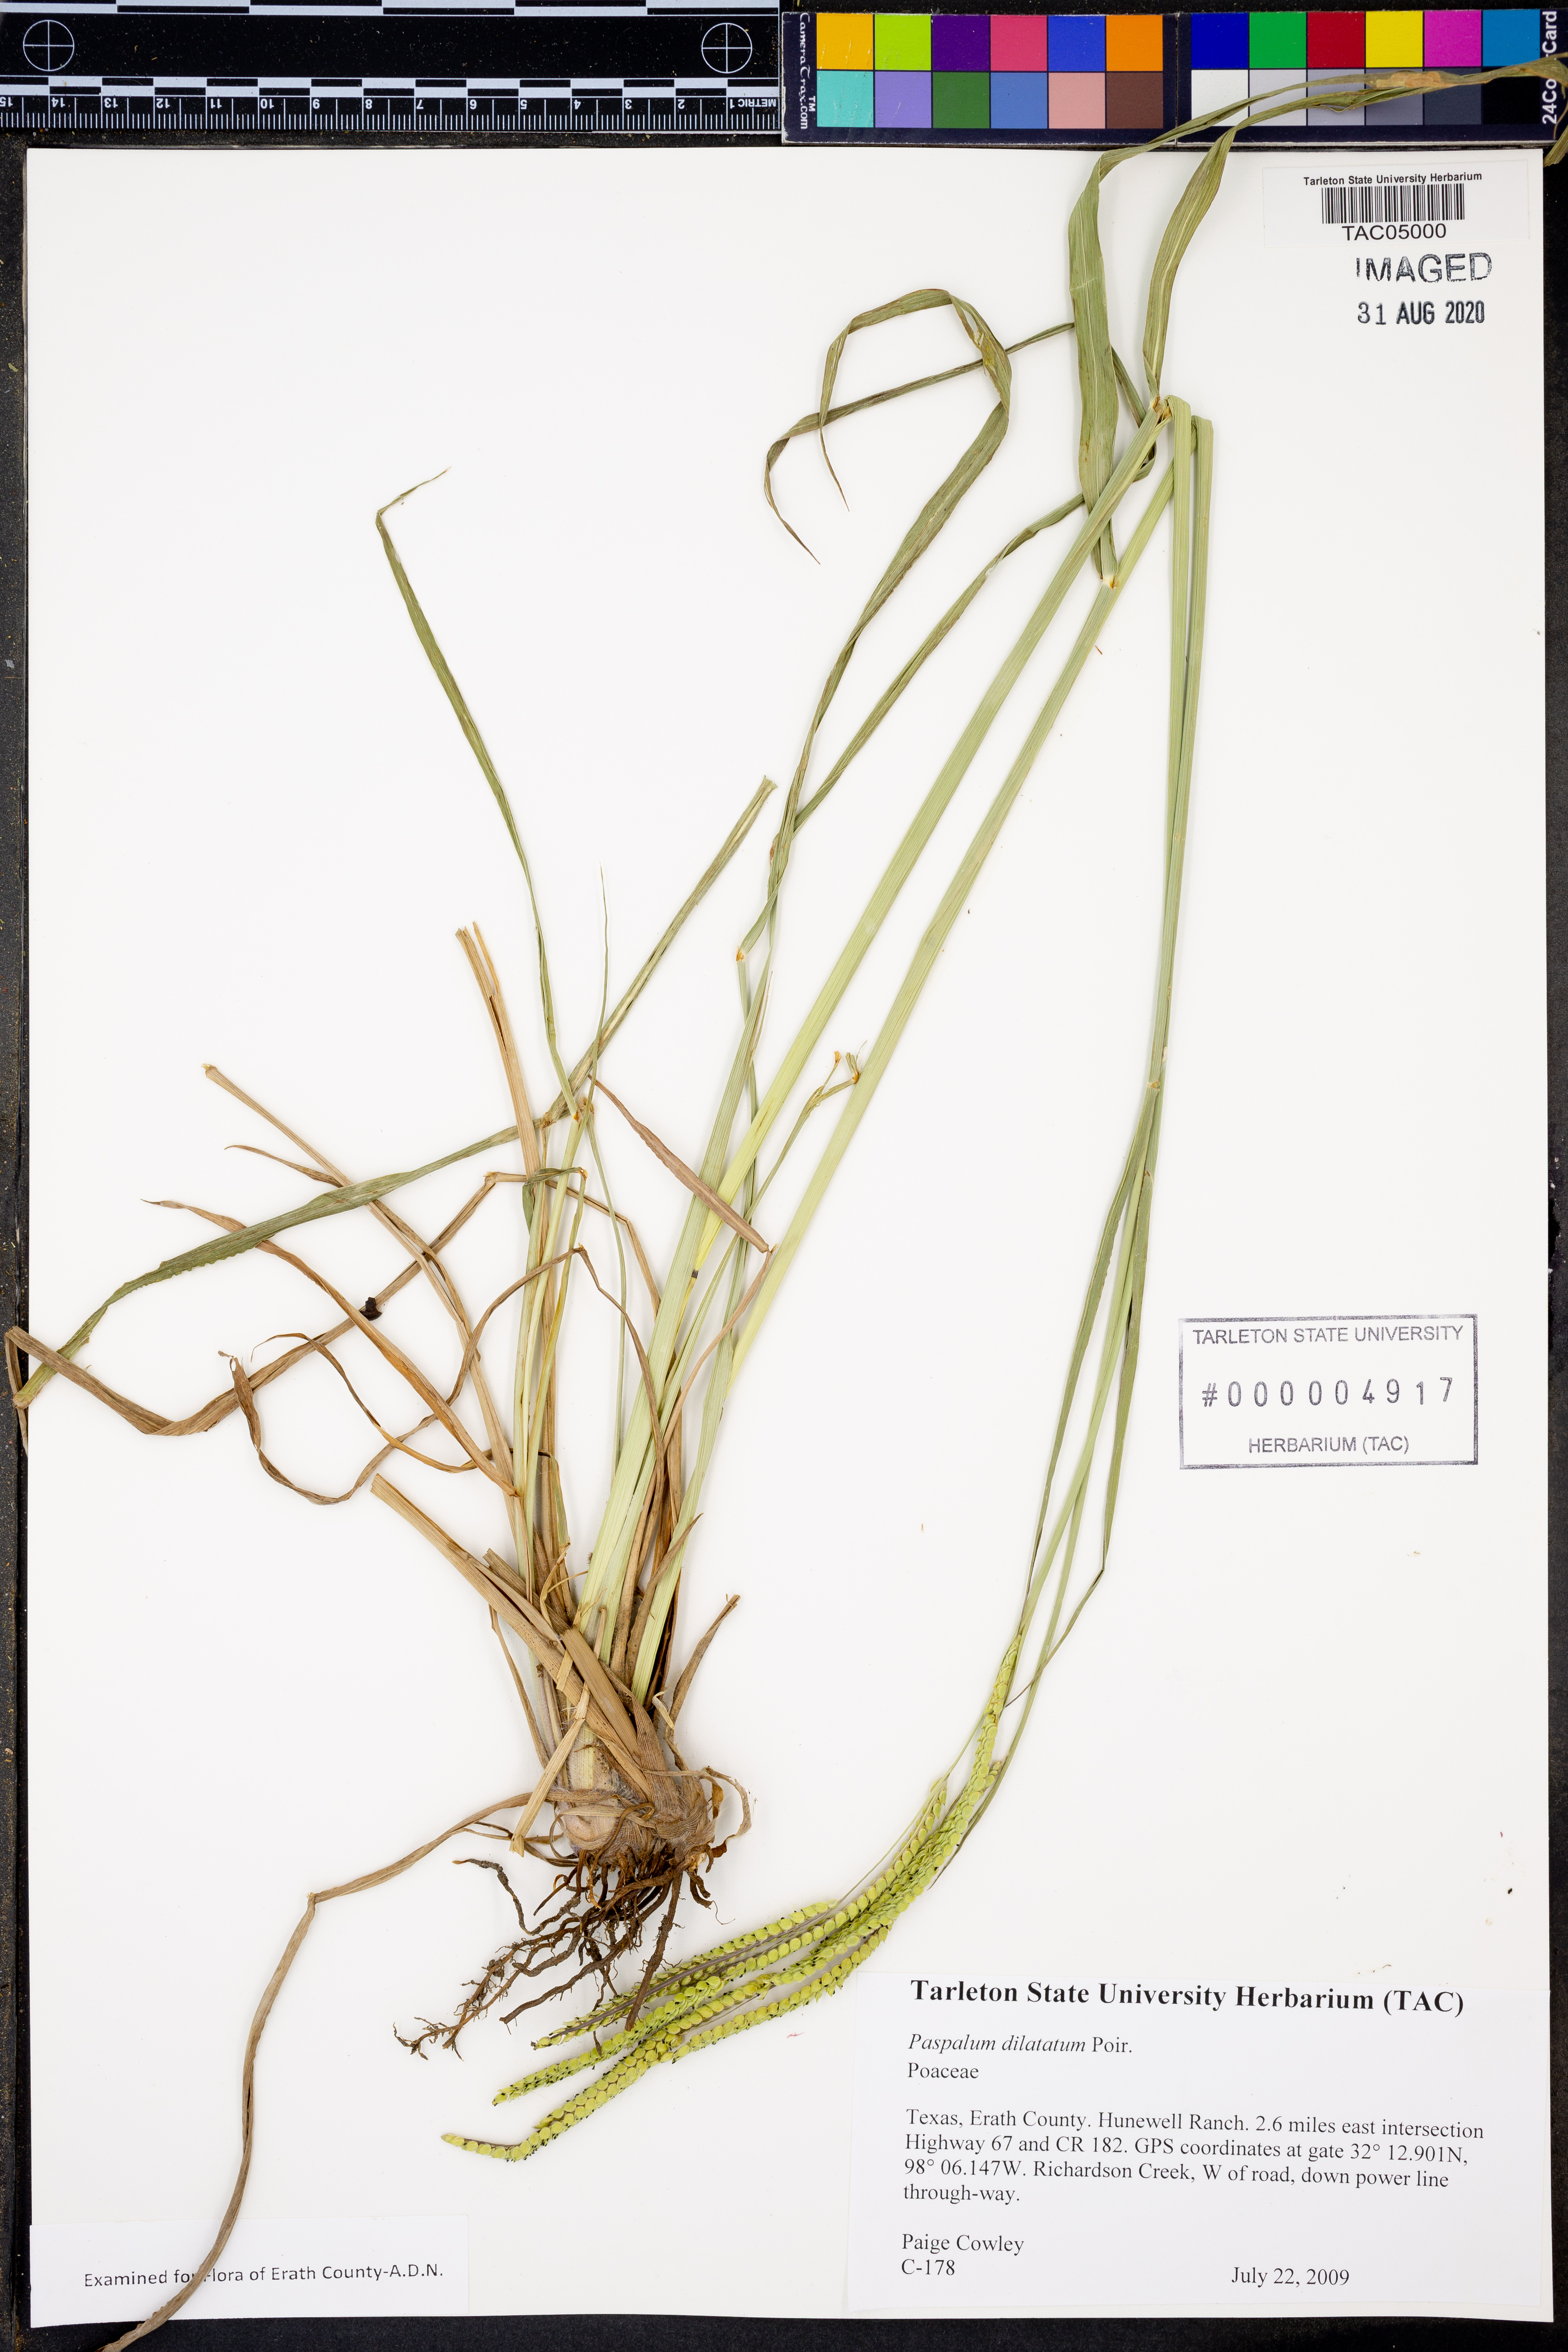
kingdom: Plantae
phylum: Tracheophyta
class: Liliopsida
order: Poales
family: Poaceae
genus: Paspalum
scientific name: Paspalum dilatatum
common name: Dallisgrass
